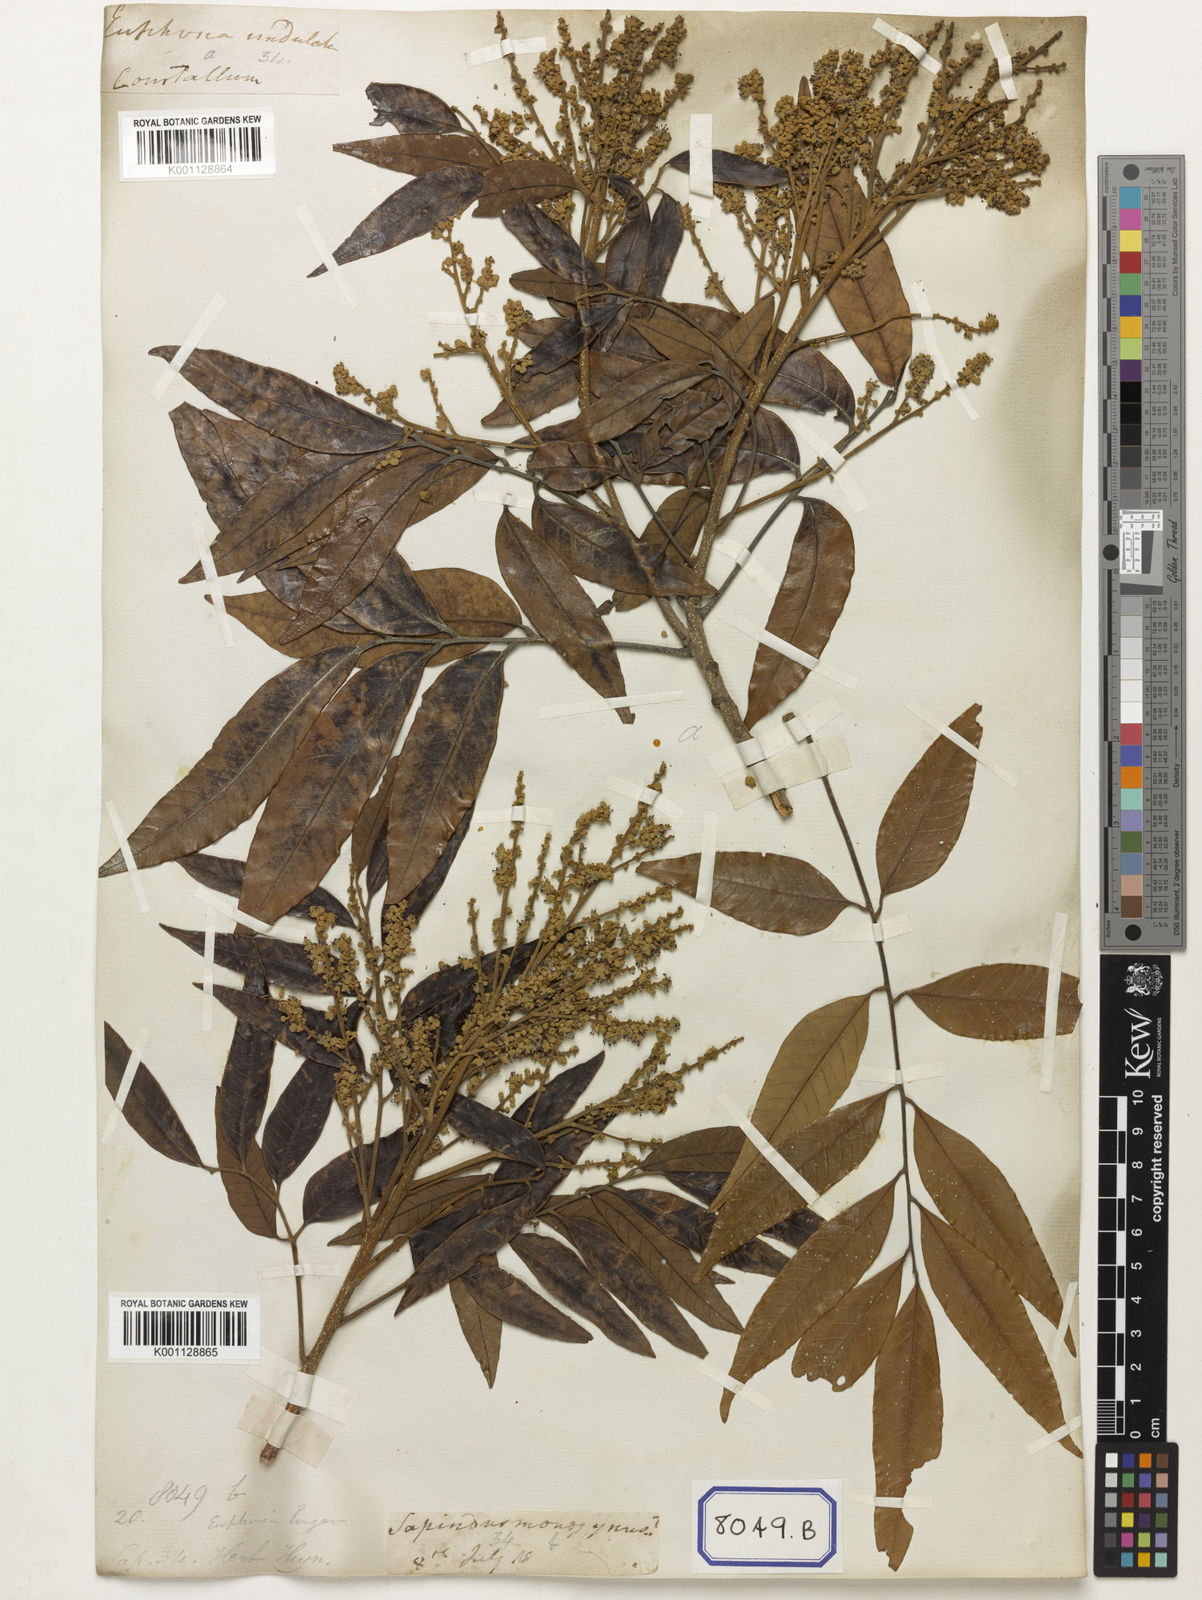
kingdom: Plantae
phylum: Tracheophyta
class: Magnoliopsida
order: Sapindales
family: Sapindaceae
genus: Dimocarpus
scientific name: Dimocarpus longan
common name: Longan
